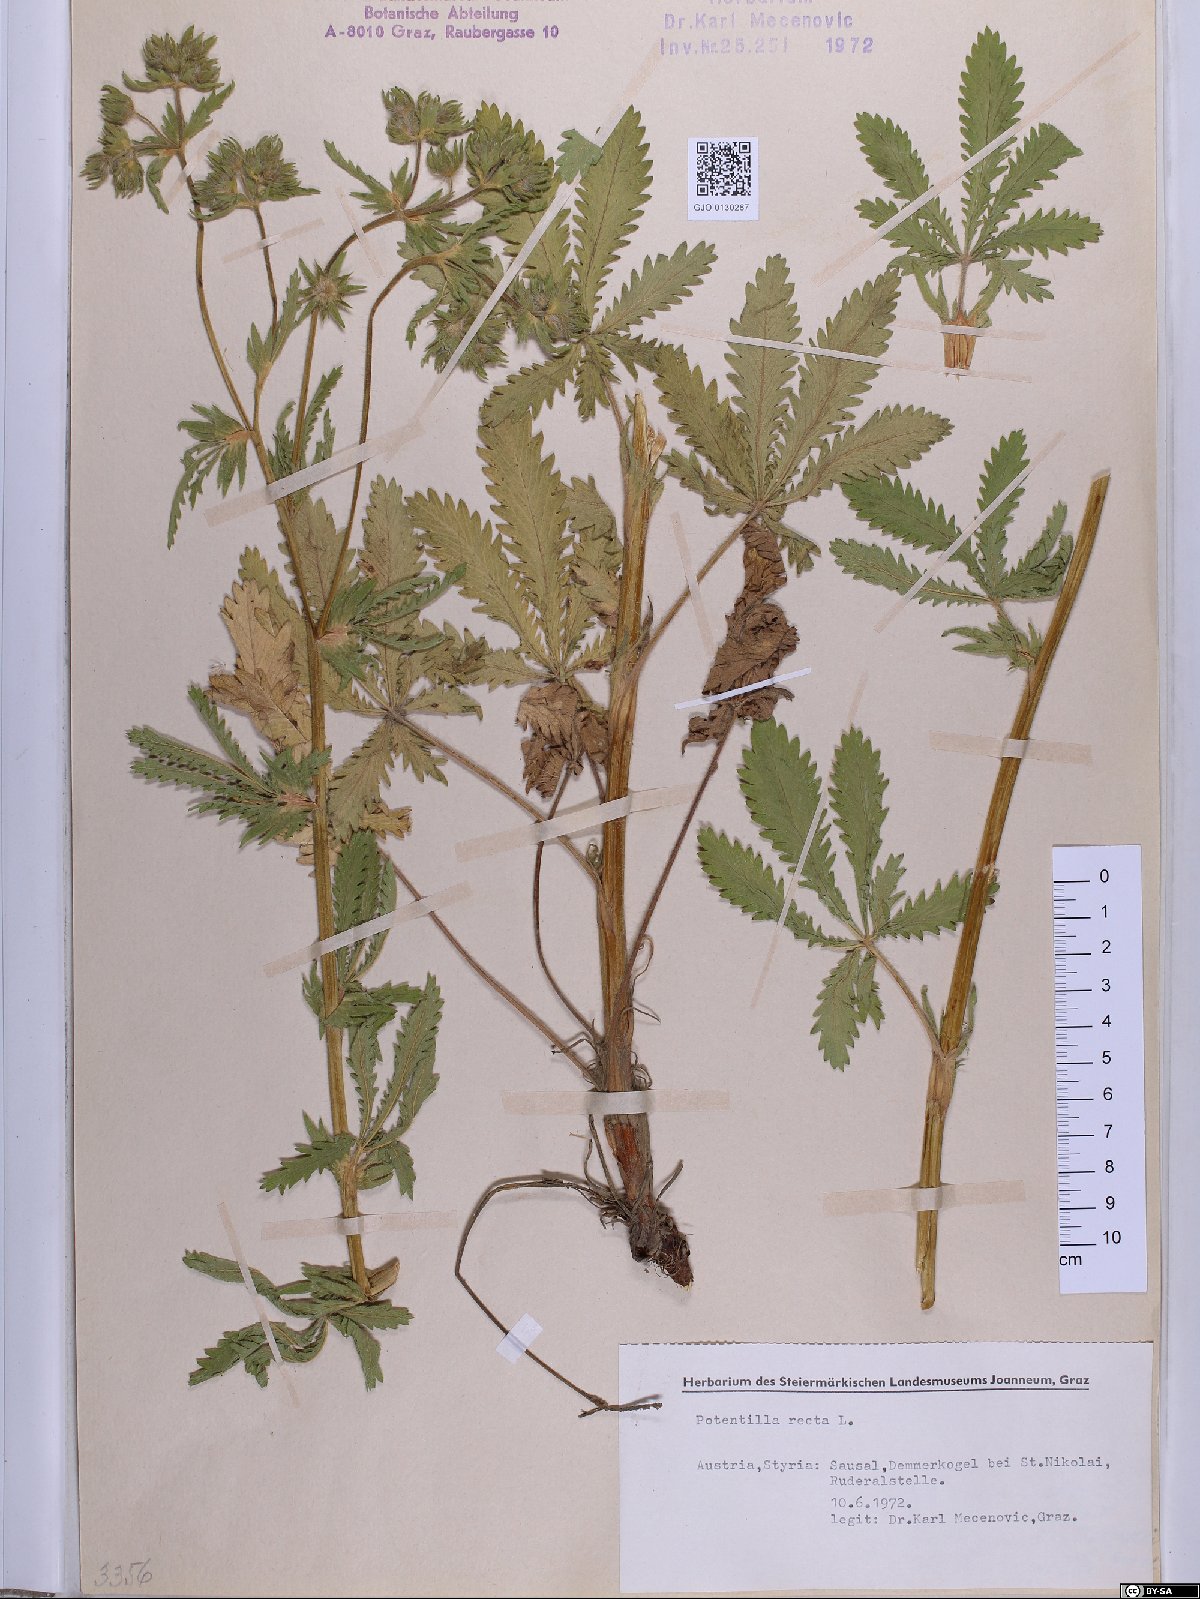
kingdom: Plantae
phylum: Tracheophyta
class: Magnoliopsida
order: Rosales
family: Rosaceae
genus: Potentilla
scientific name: Potentilla recta
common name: Sulphur cinquefoil
